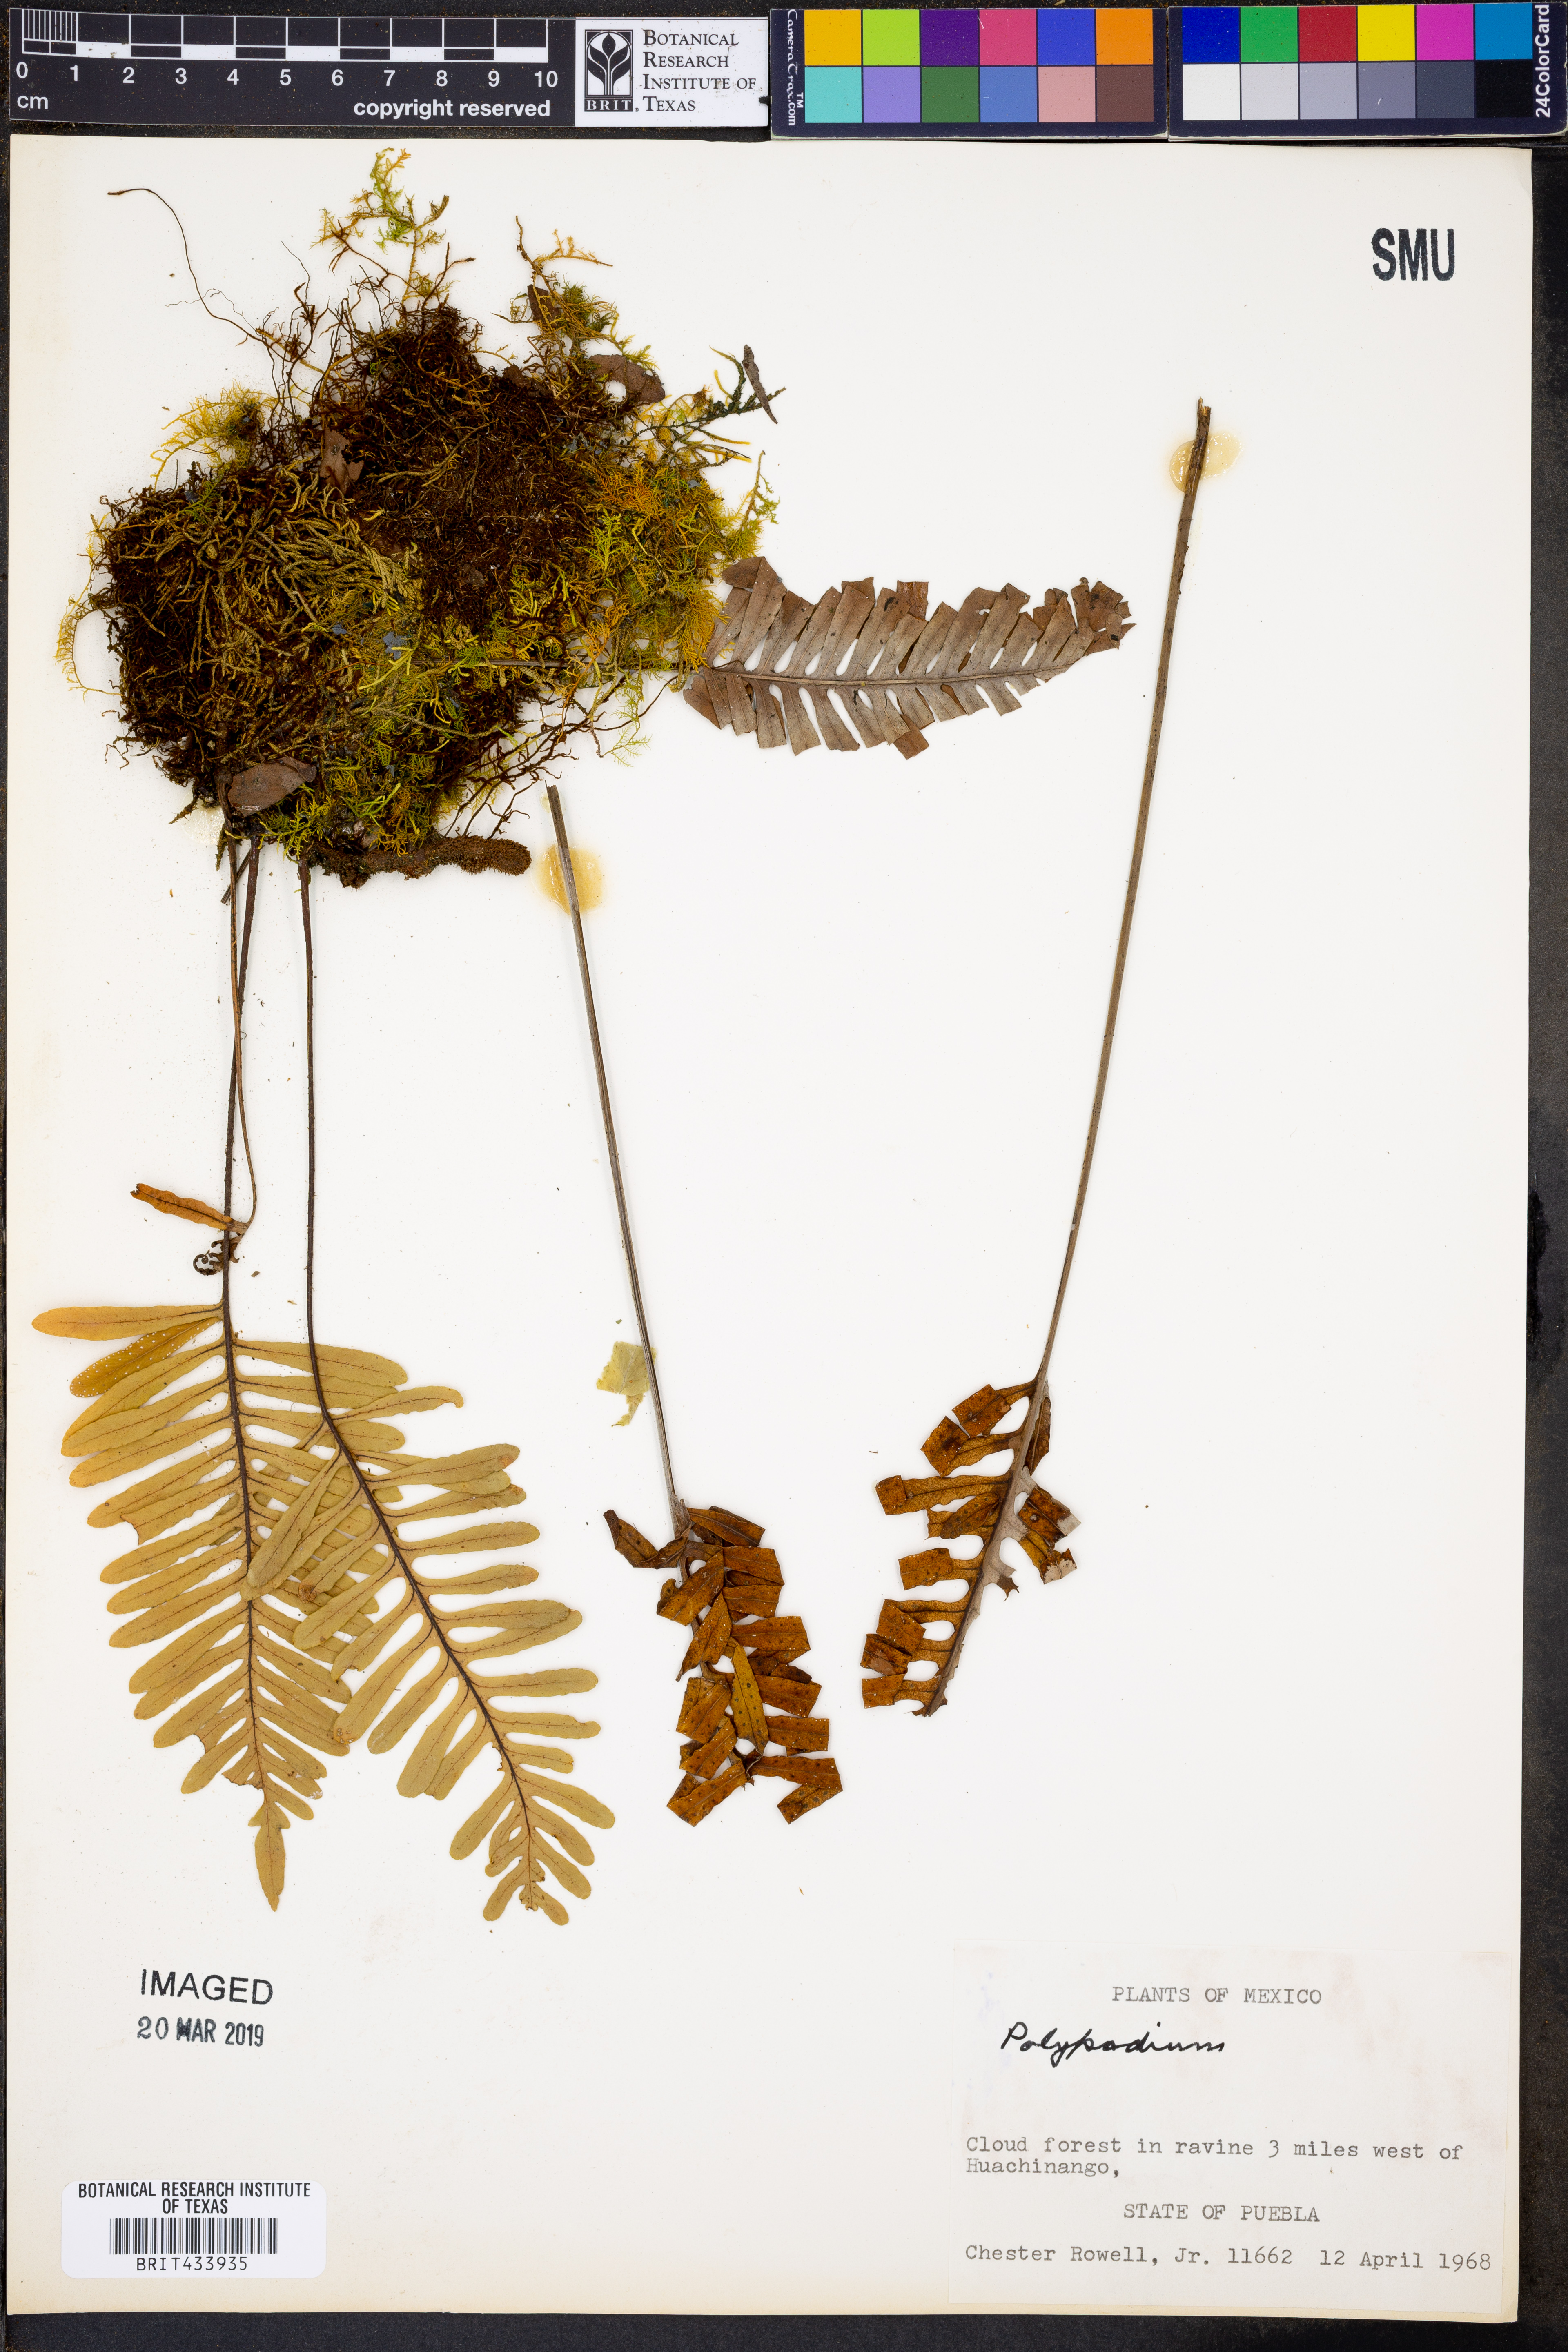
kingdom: Plantae
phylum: Tracheophyta
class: Polypodiopsida
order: Polypodiales
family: Polypodiaceae
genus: Polypodium
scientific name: Polypodium
